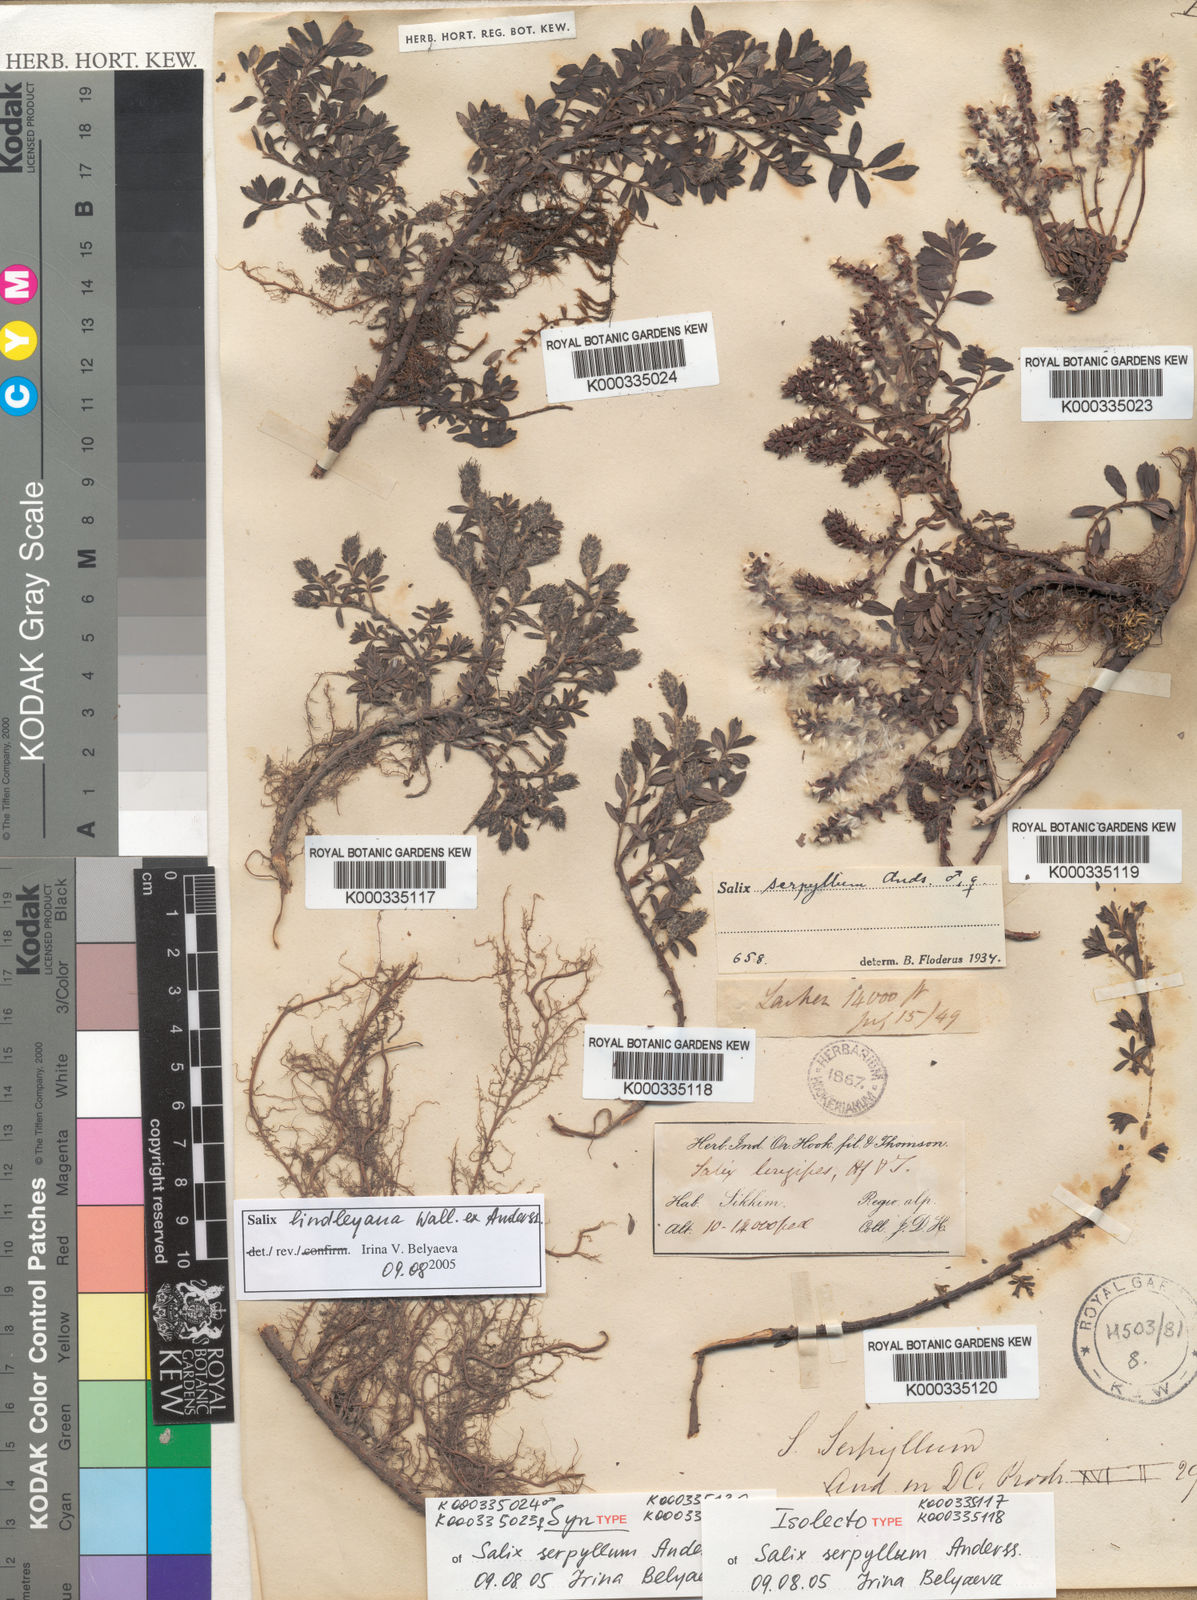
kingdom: Plantae
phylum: Tracheophyta
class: Magnoliopsida
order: Malpighiales
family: Salicaceae
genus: Salix
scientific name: Salix fruticulosa
